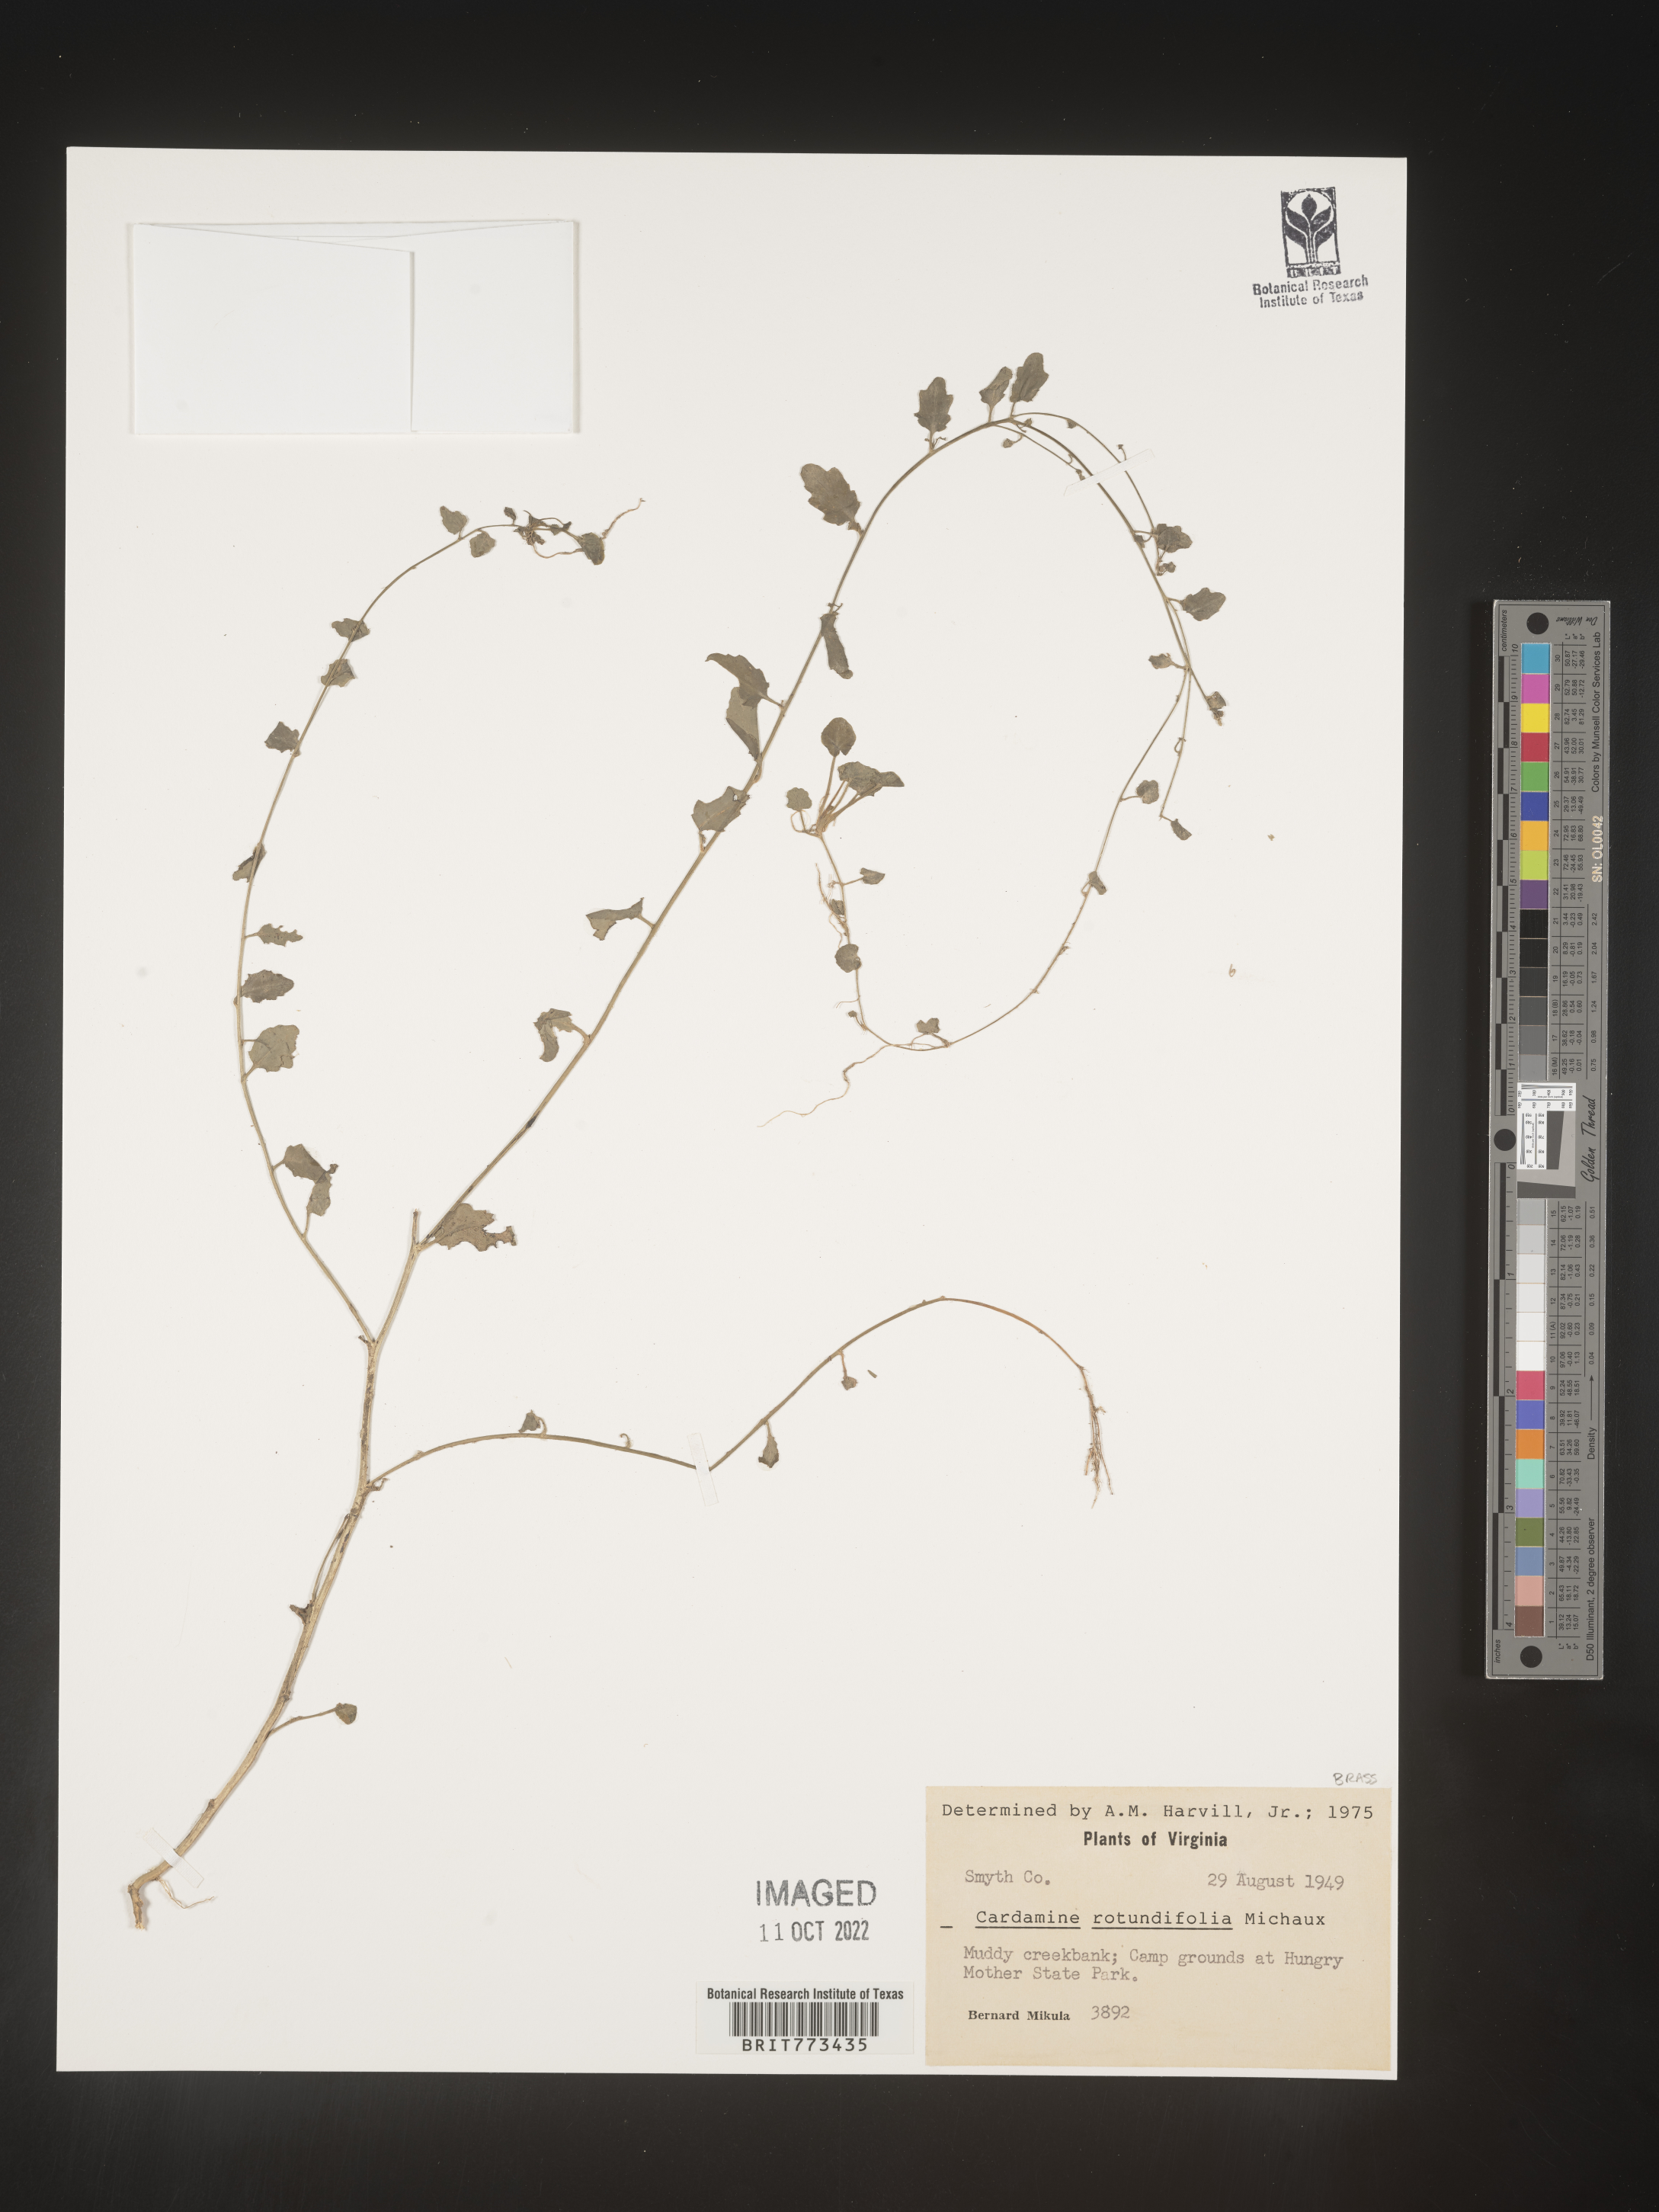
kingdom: Plantae
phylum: Tracheophyta
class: Magnoliopsida
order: Brassicales
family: Brassicaceae
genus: Cardamine
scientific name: Cardamine
